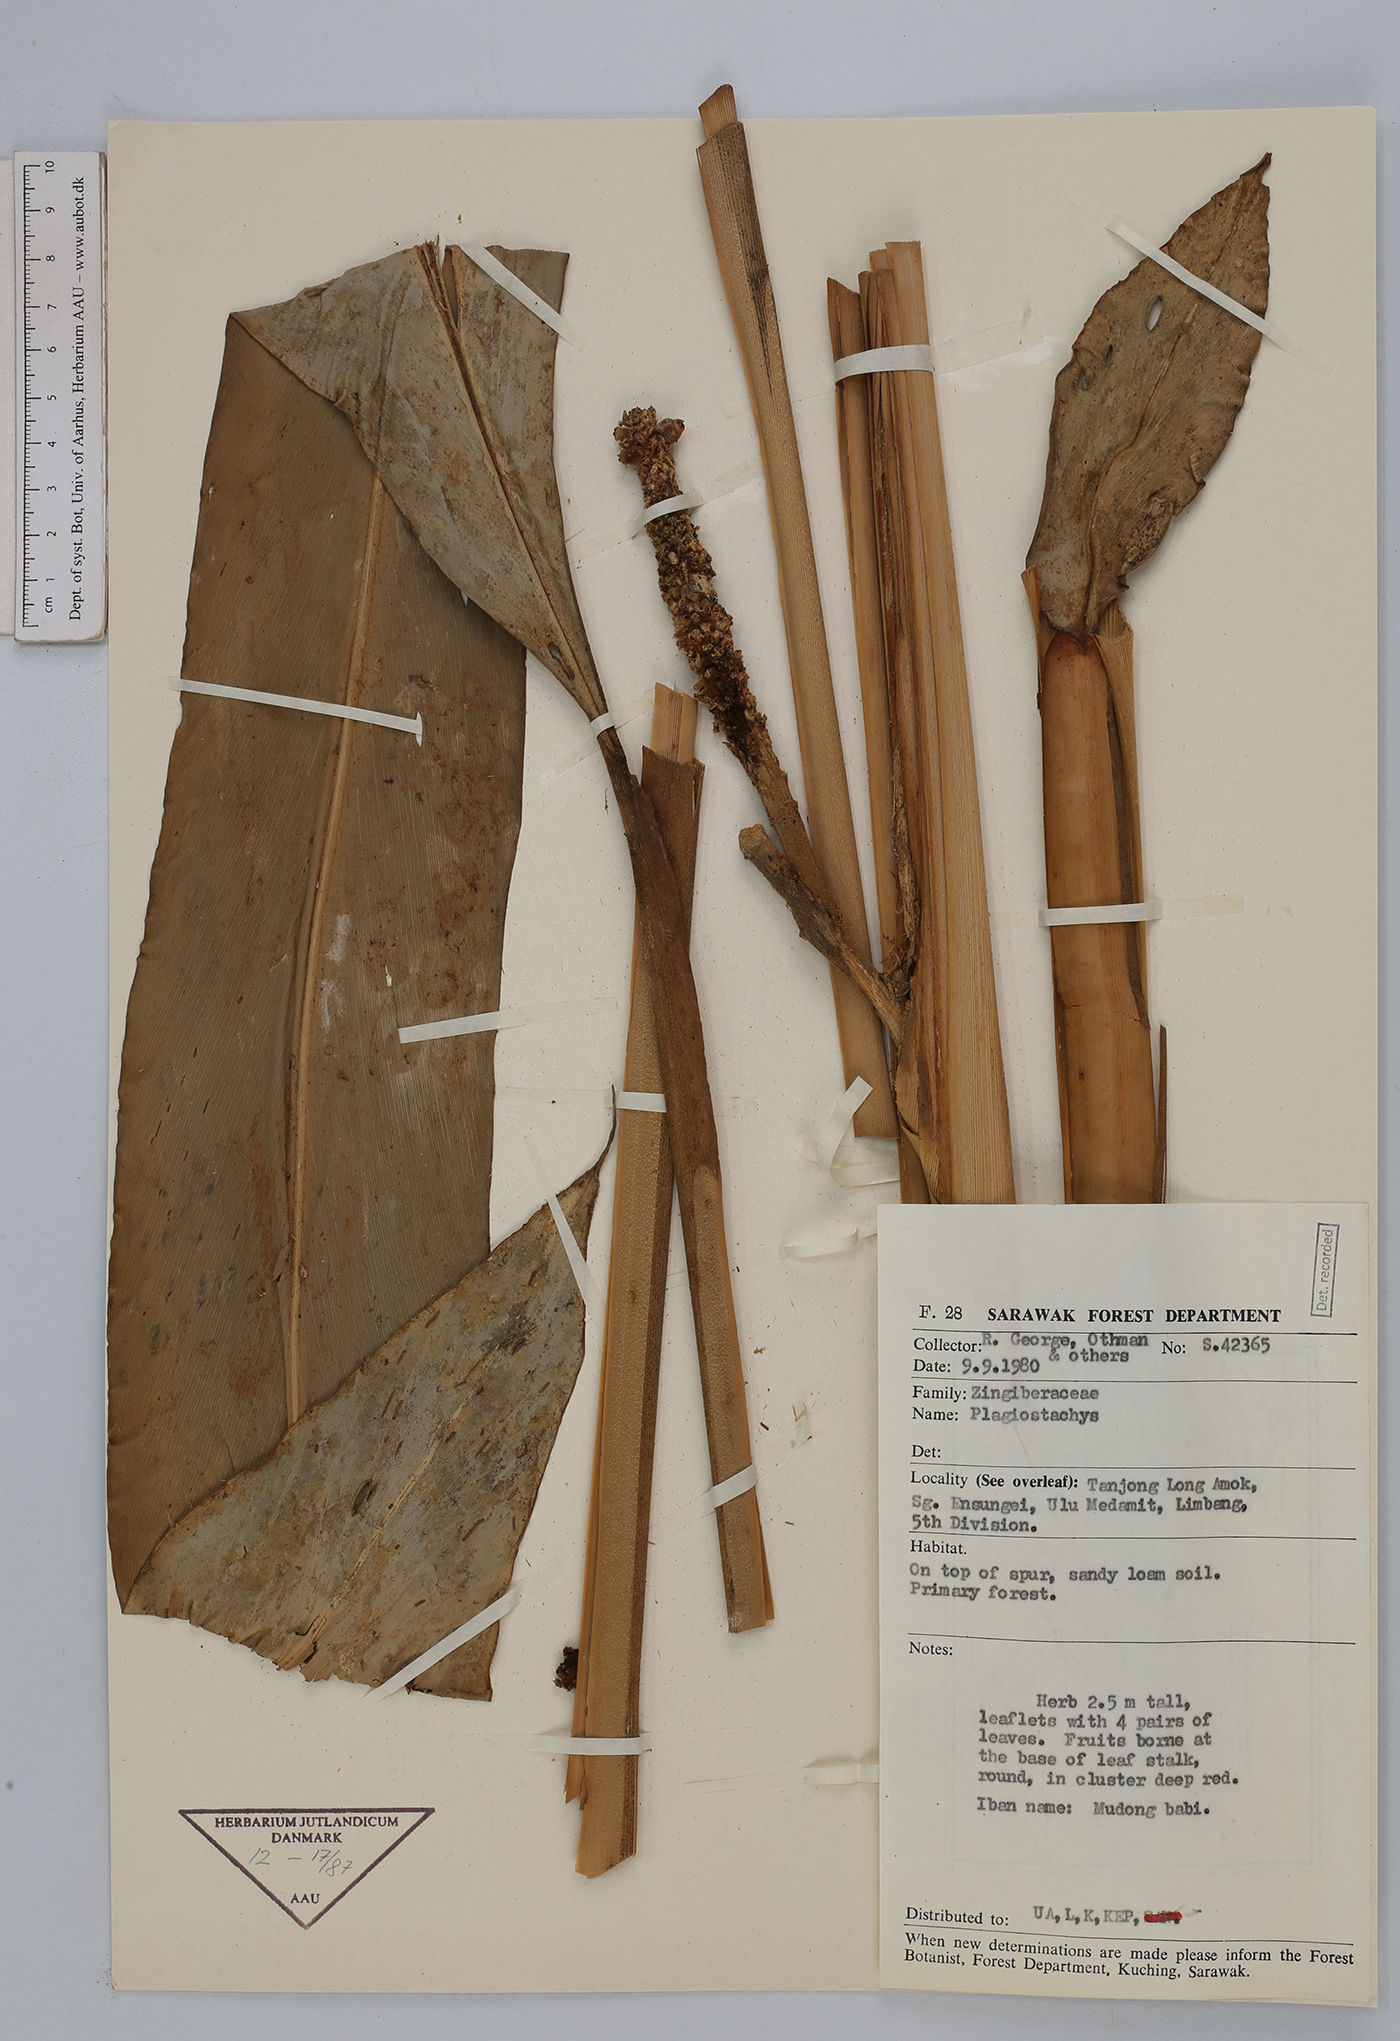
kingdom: Plantae
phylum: Tracheophyta
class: Liliopsida
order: Zingiberales
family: Zingiberaceae
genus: Plagiostachys
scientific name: Plagiostachys
